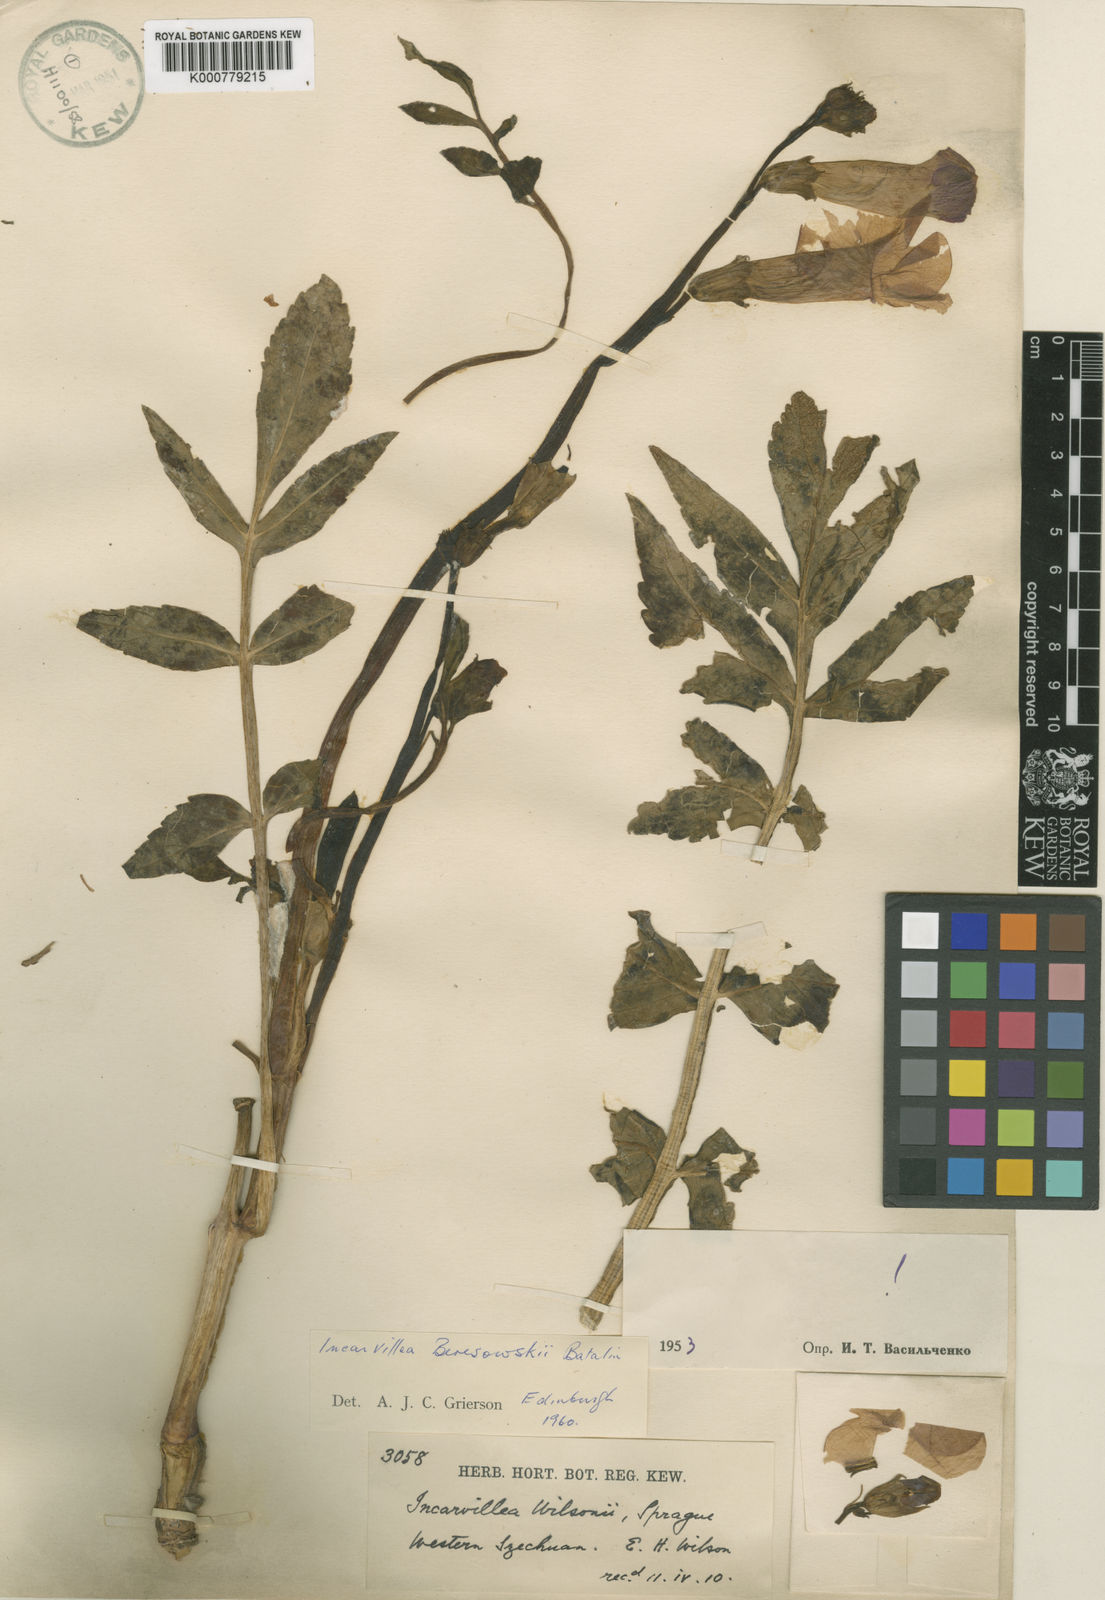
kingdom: Plantae
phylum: Tracheophyta
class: Magnoliopsida
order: Lamiales
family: Bignoniaceae
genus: Incarvillea
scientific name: Incarvillea beresowskii
